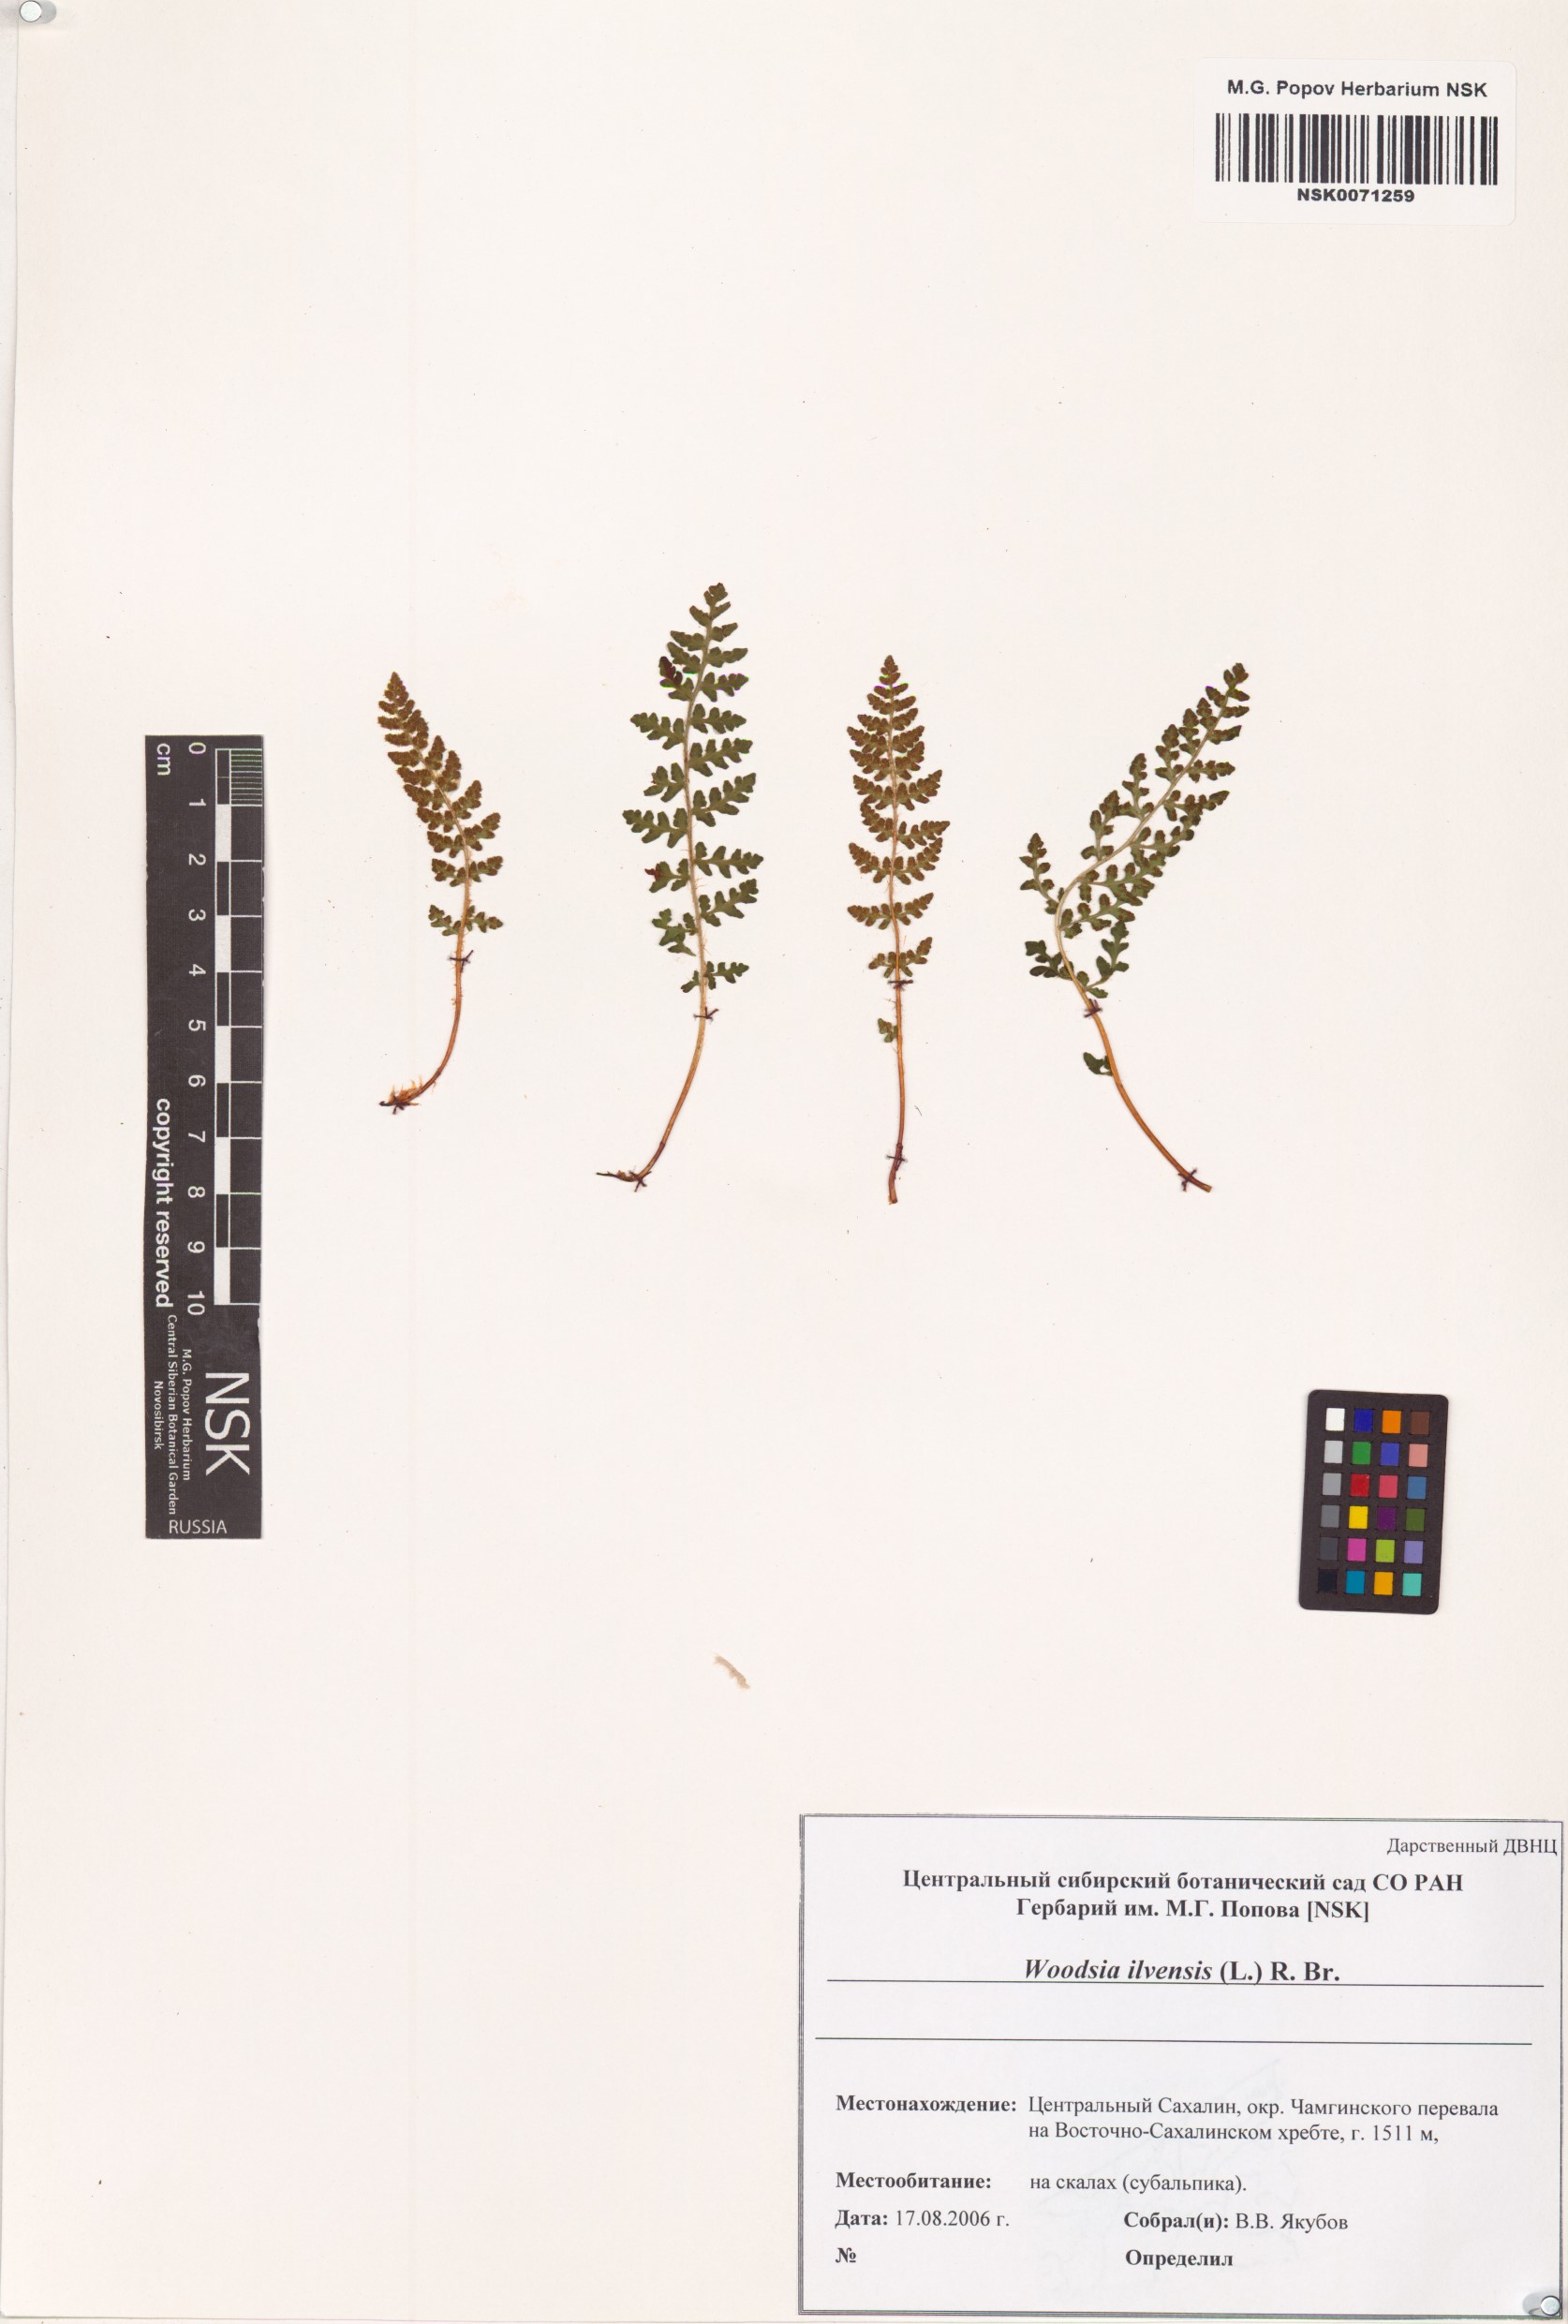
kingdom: Plantae
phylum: Tracheophyta
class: Polypodiopsida
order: Polypodiales
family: Woodsiaceae
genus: Woodsia
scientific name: Woodsia ilvensis
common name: Fragrant woodsia
